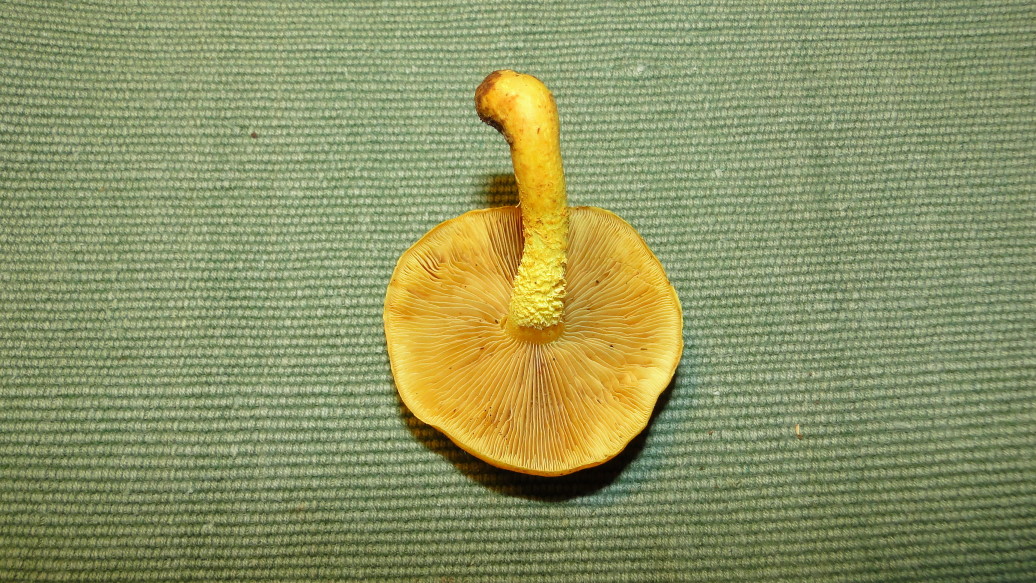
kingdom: Fungi
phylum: Basidiomycota
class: Agaricomycetes
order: Agaricales
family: Strophariaceae
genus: Pholiota
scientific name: Pholiota flammans
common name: flamme-skælhat
